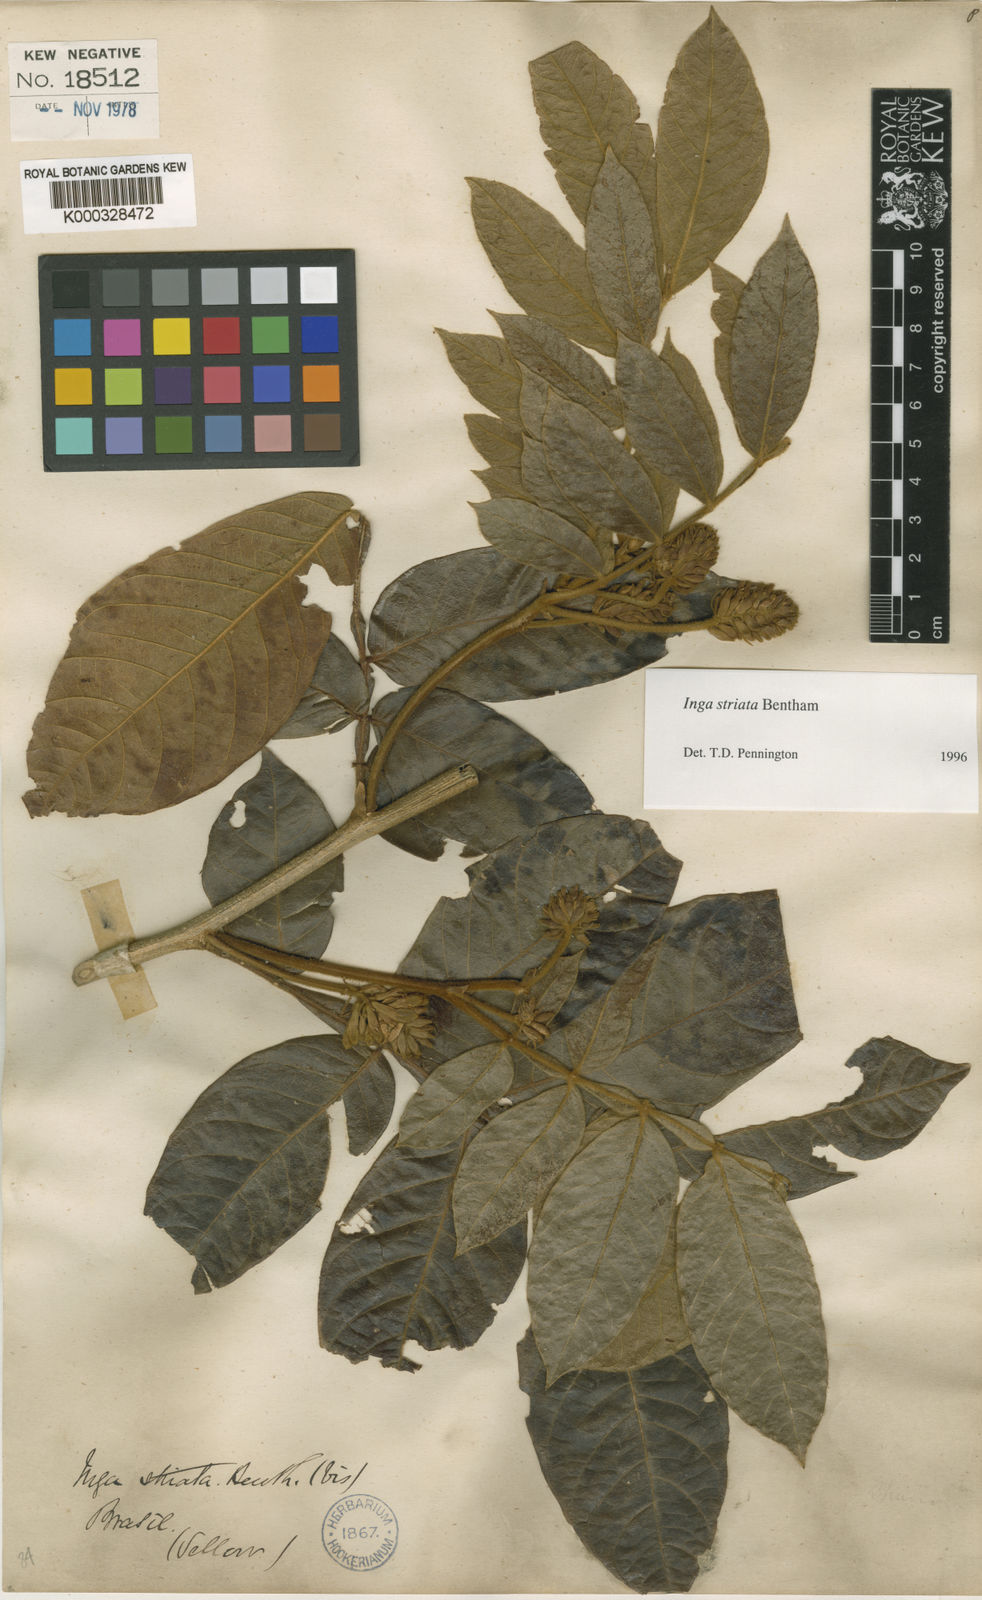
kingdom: Plantae
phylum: Tracheophyta
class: Magnoliopsida
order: Fabales
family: Fabaceae
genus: Inga
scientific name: Inga striata
